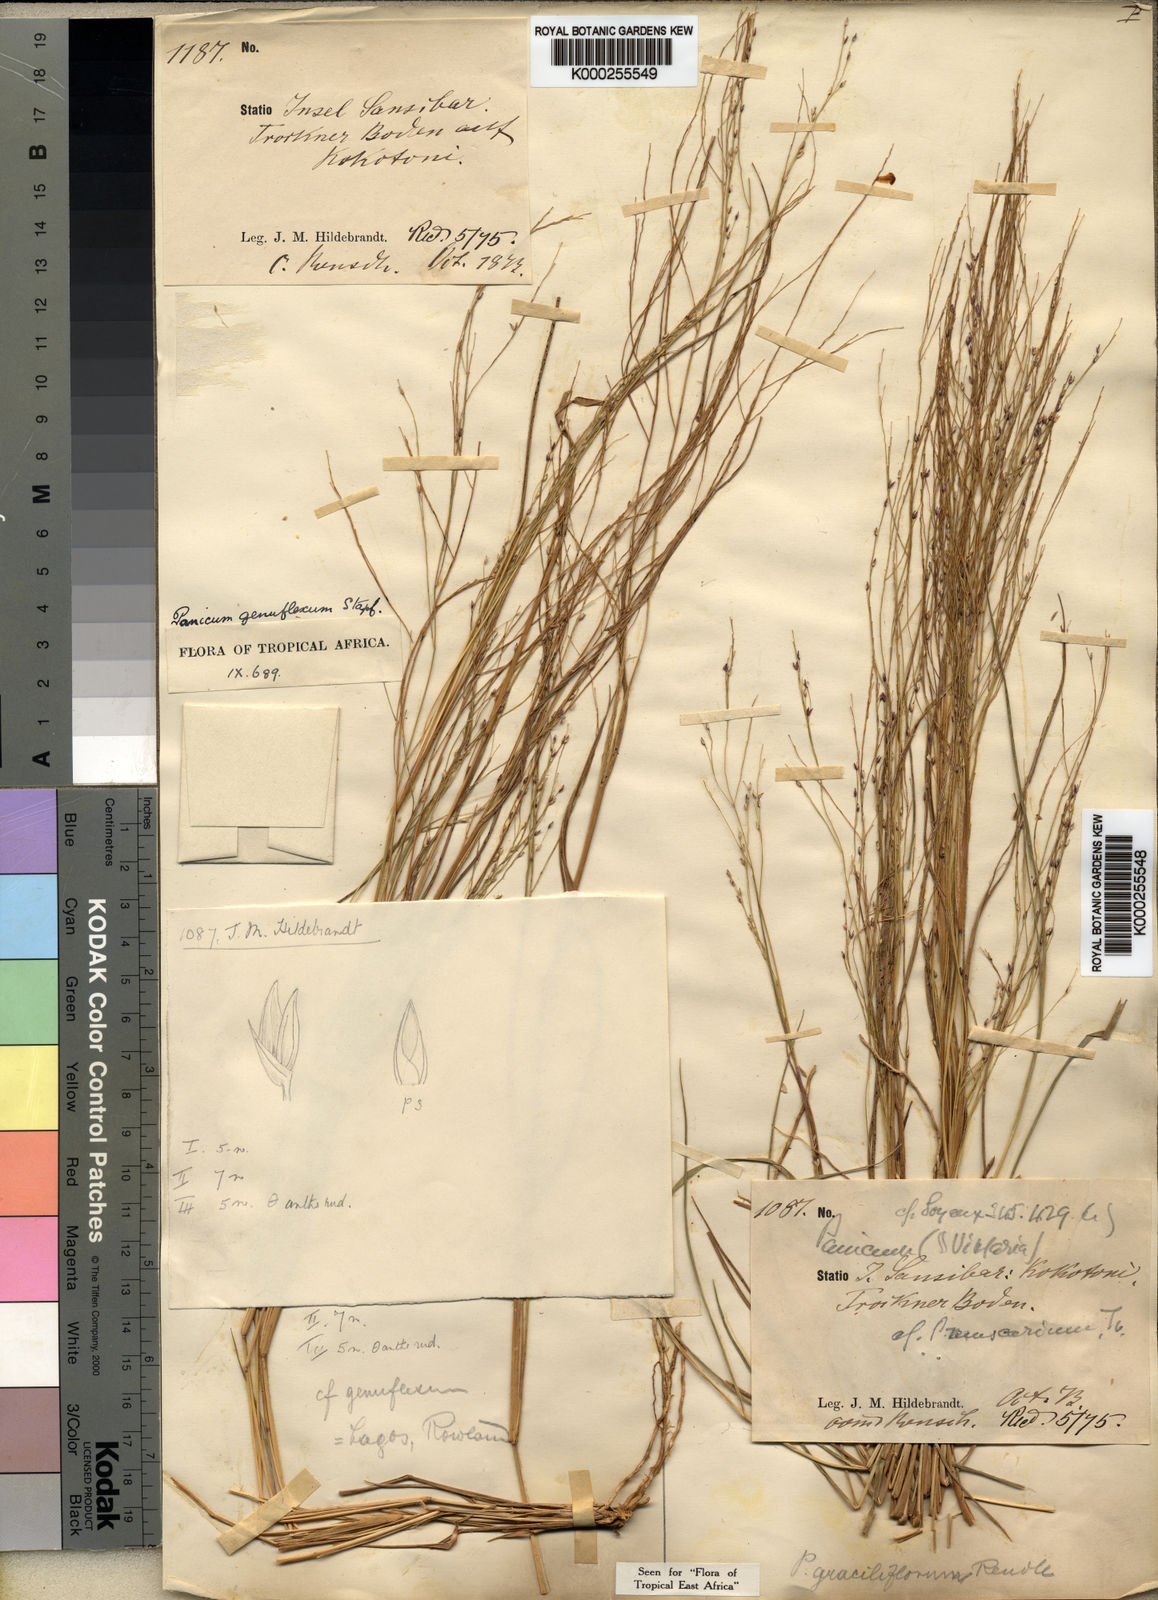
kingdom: Plantae
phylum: Tracheophyta
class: Liliopsida
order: Poales
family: Poaceae
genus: Panicum
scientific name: Panicum genuflexum
